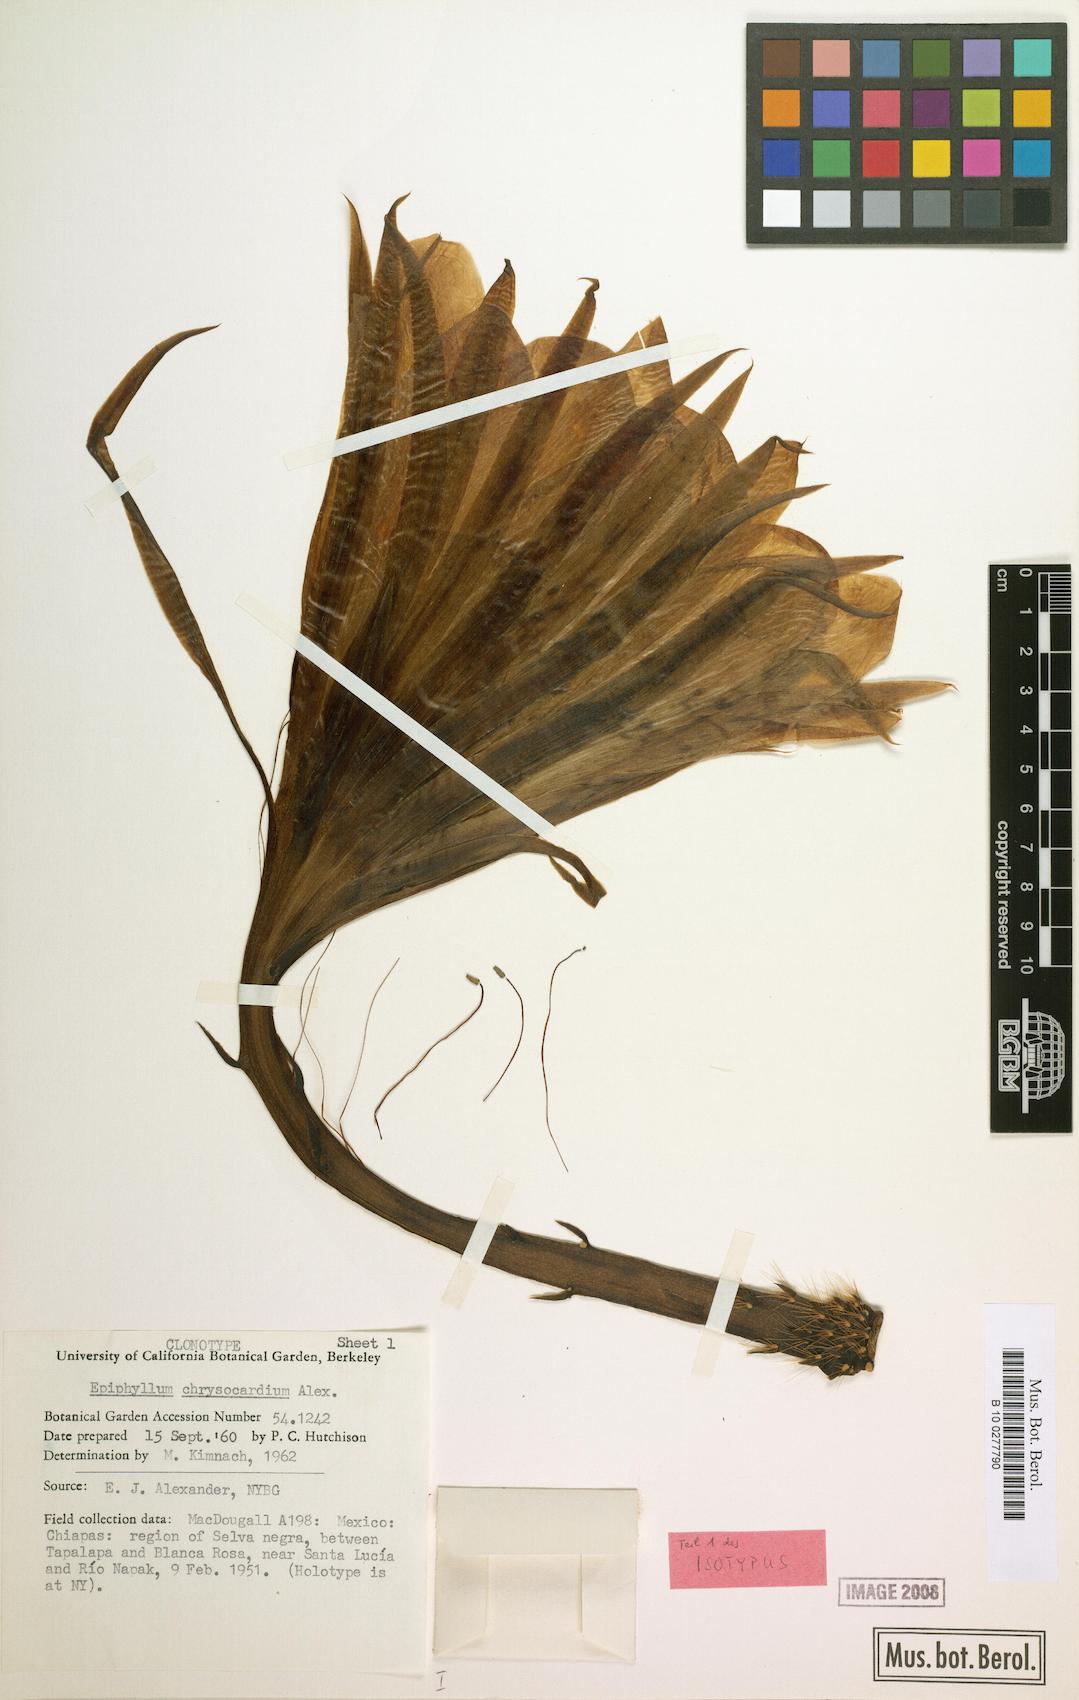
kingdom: Plantae
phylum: Tracheophyta
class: Magnoliopsida
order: Caryophyllales
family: Cactaceae
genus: Epiphyllum
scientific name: Epiphyllum chrysocardium
